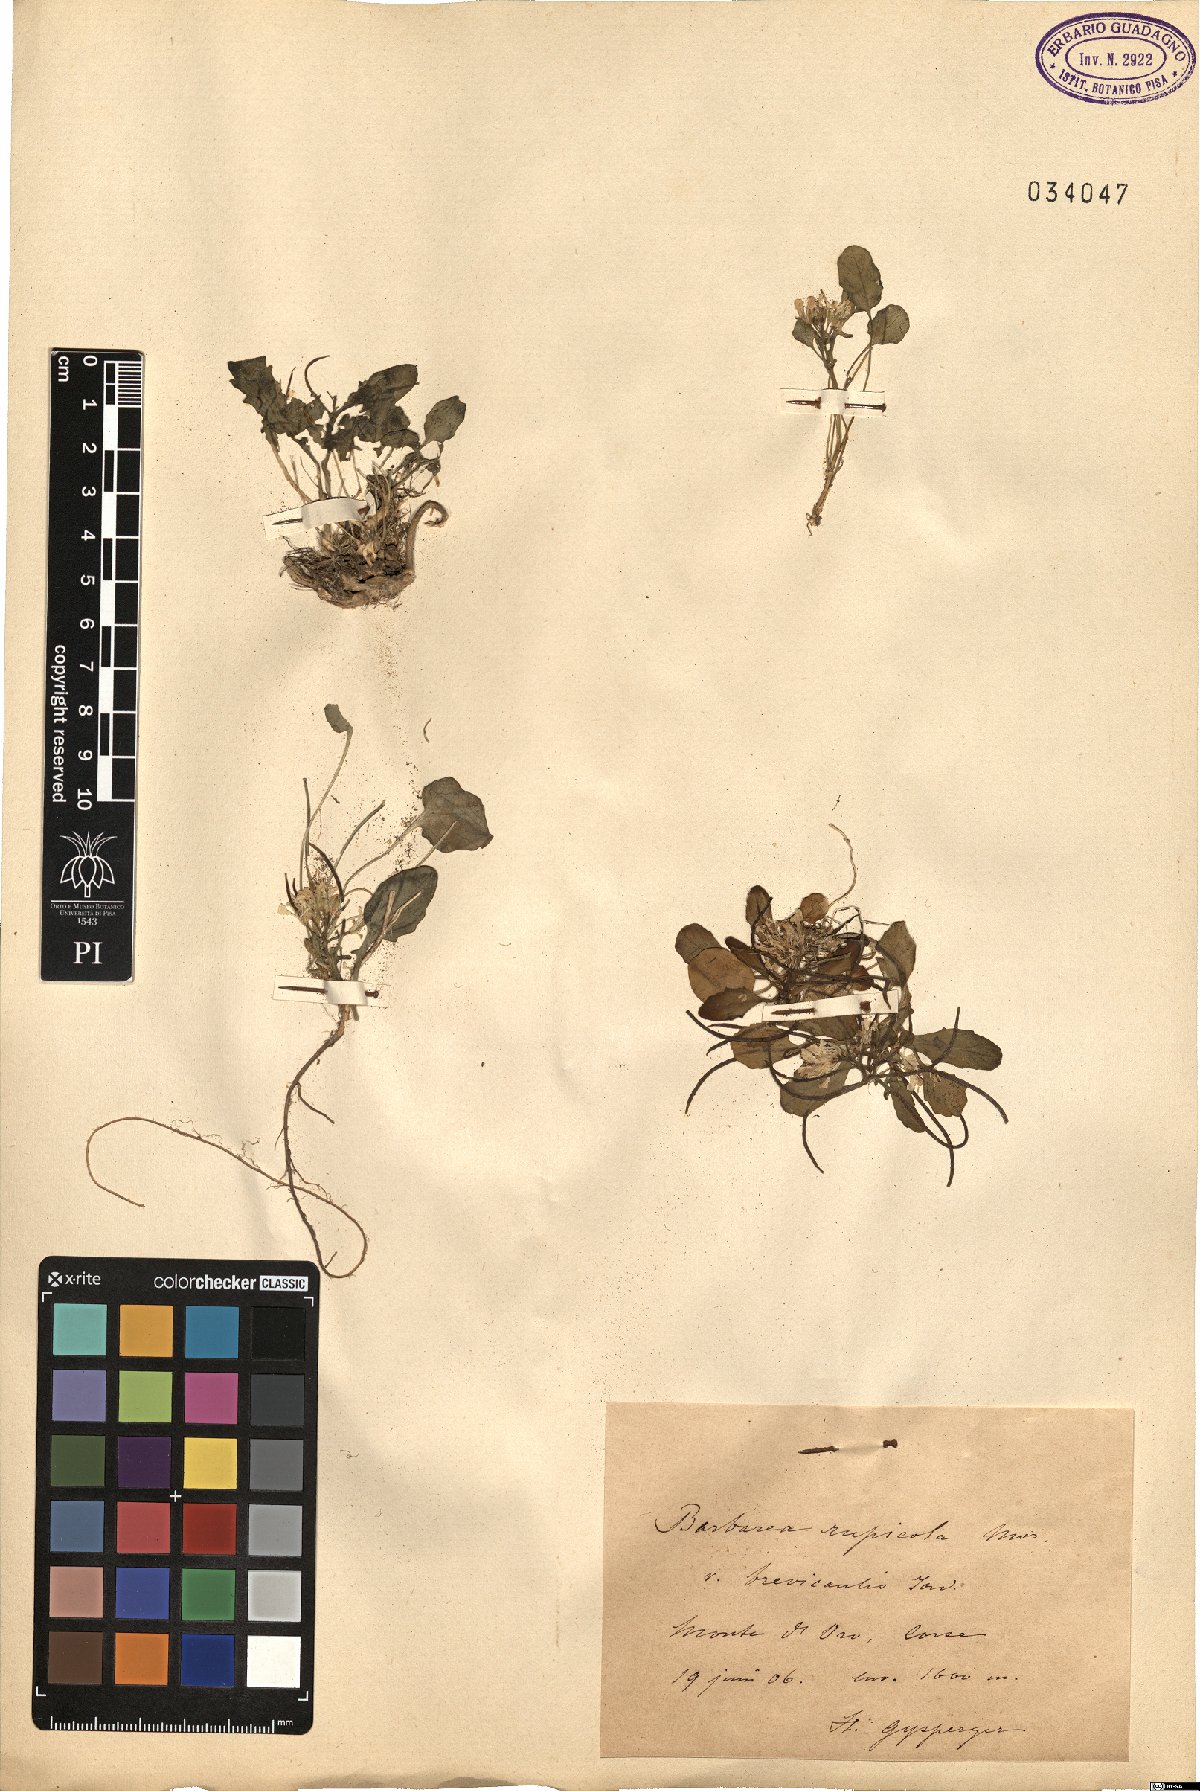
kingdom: Plantae
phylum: Tracheophyta
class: Magnoliopsida
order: Brassicales
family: Brassicaceae
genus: Barbarea
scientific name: Barbarea rupicola
